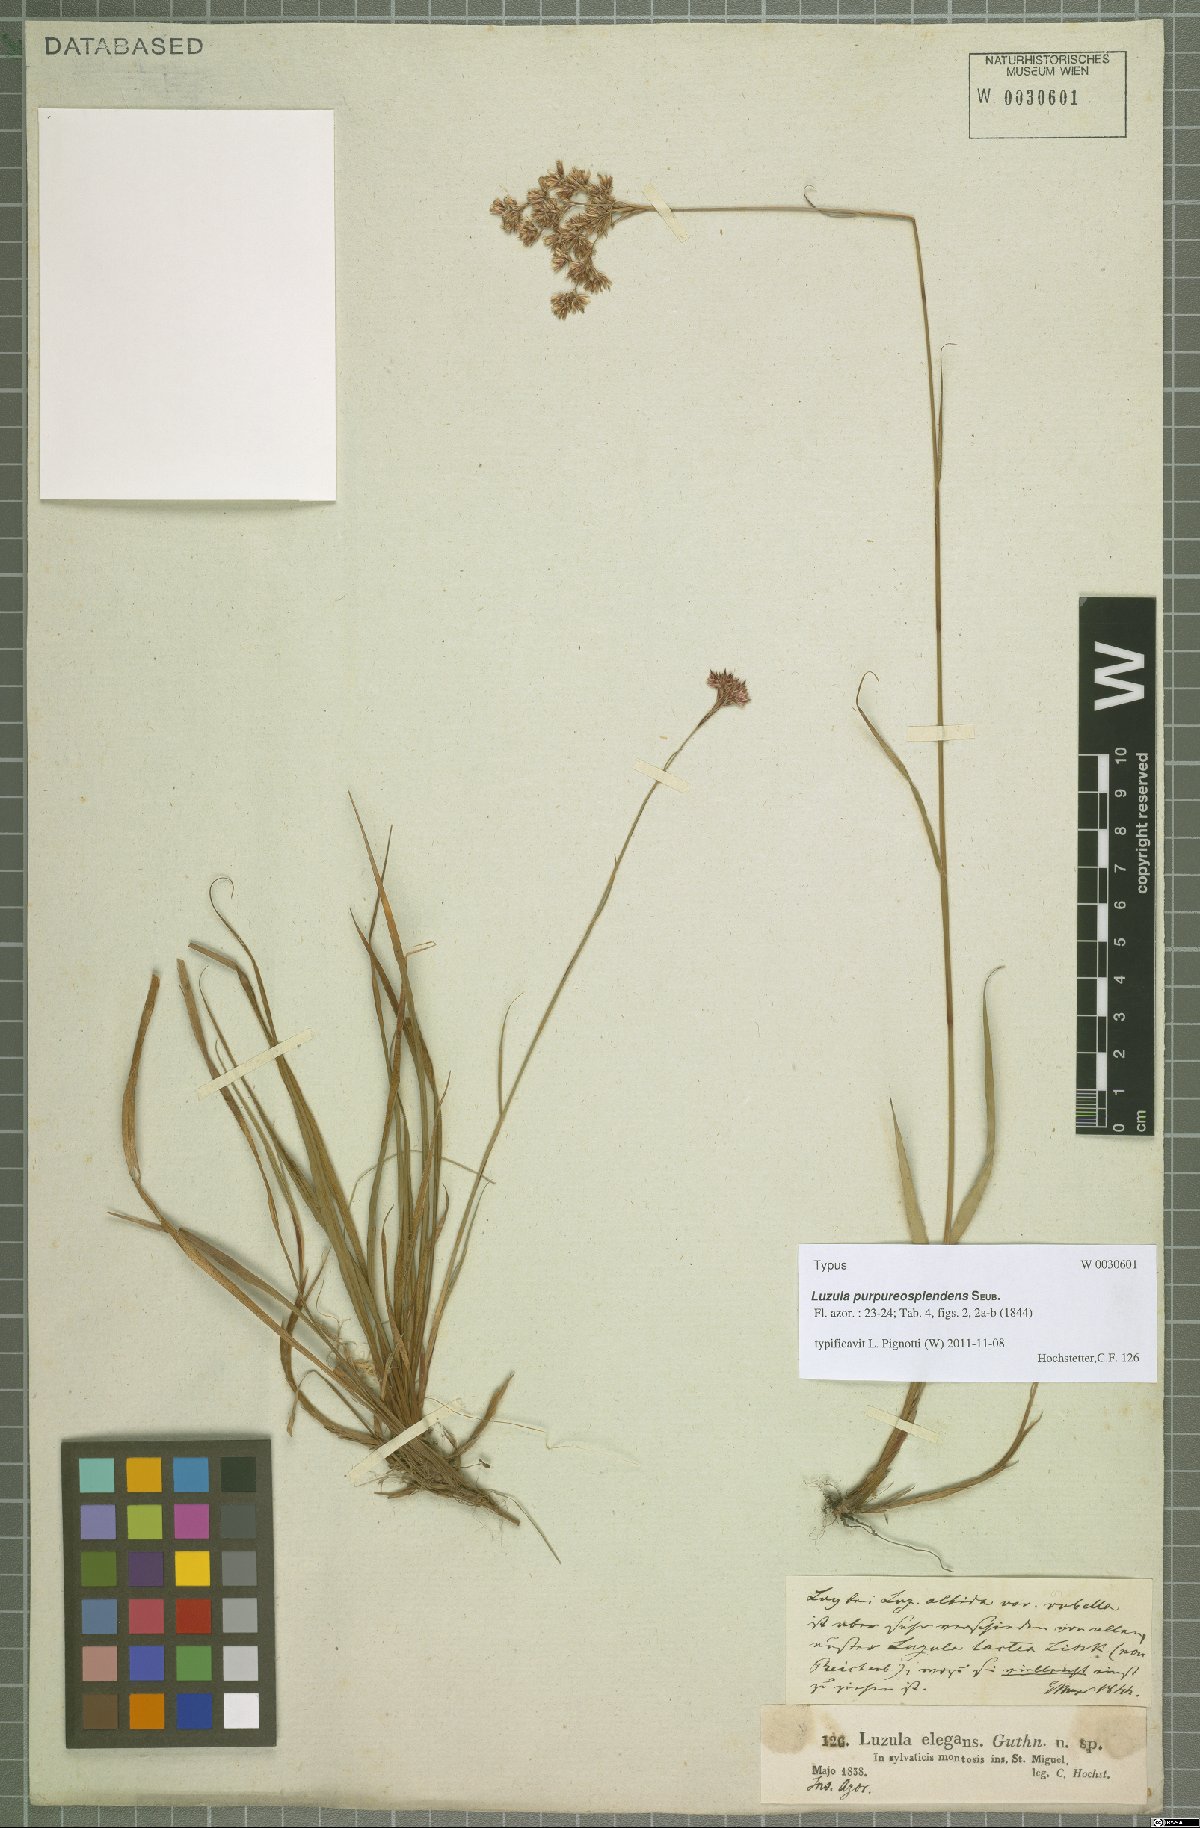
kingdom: Plantae
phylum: Tracheophyta
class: Liliopsida
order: Poales
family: Juncaceae
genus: Luzula
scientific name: Luzula purpureosplendens
